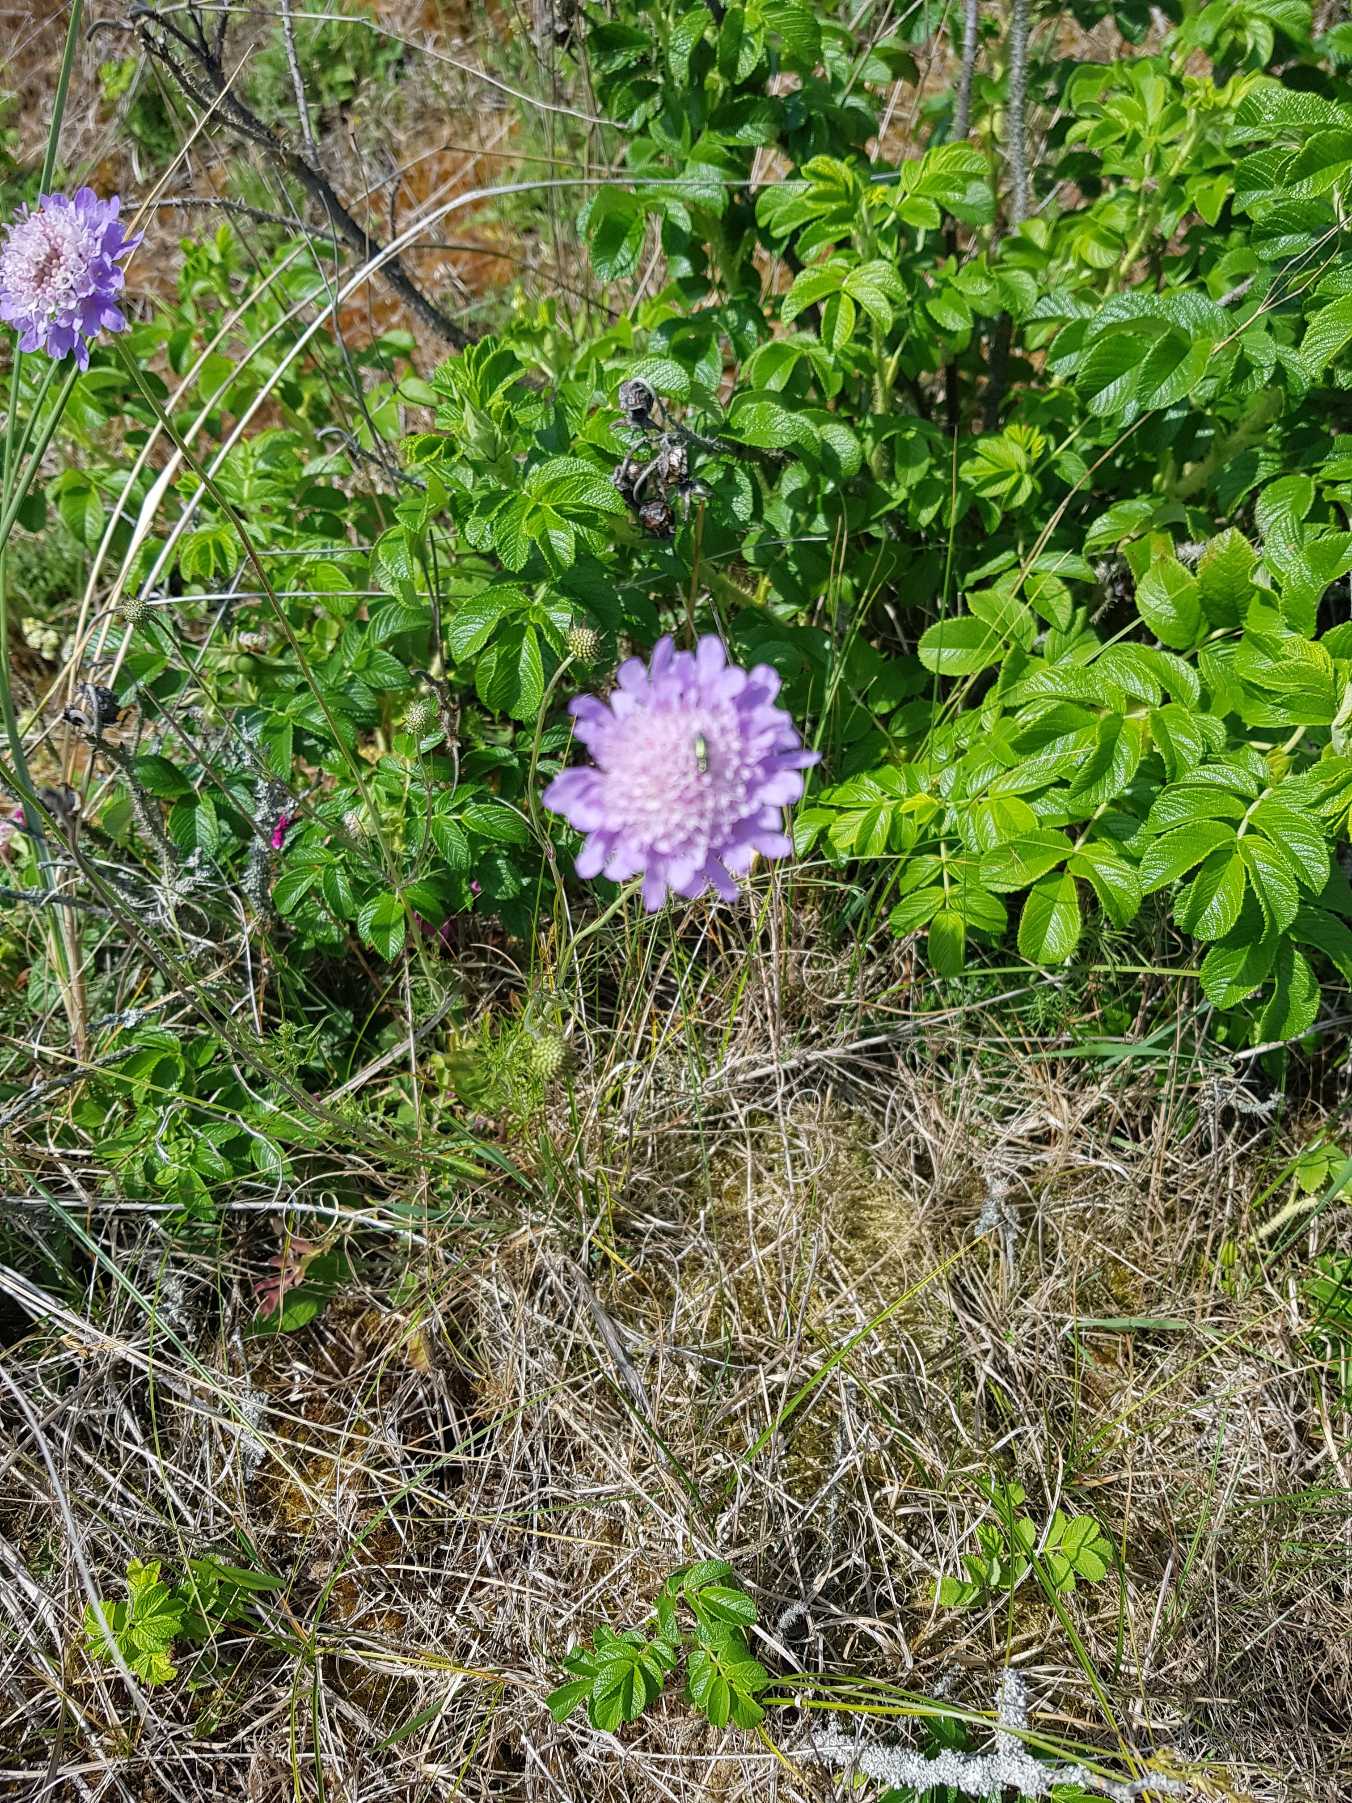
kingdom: Plantae
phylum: Tracheophyta
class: Magnoliopsida
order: Dipsacales
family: Caprifoliaceae
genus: Scabiosa
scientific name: Scabiosa columbaria
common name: Due-skabiose
